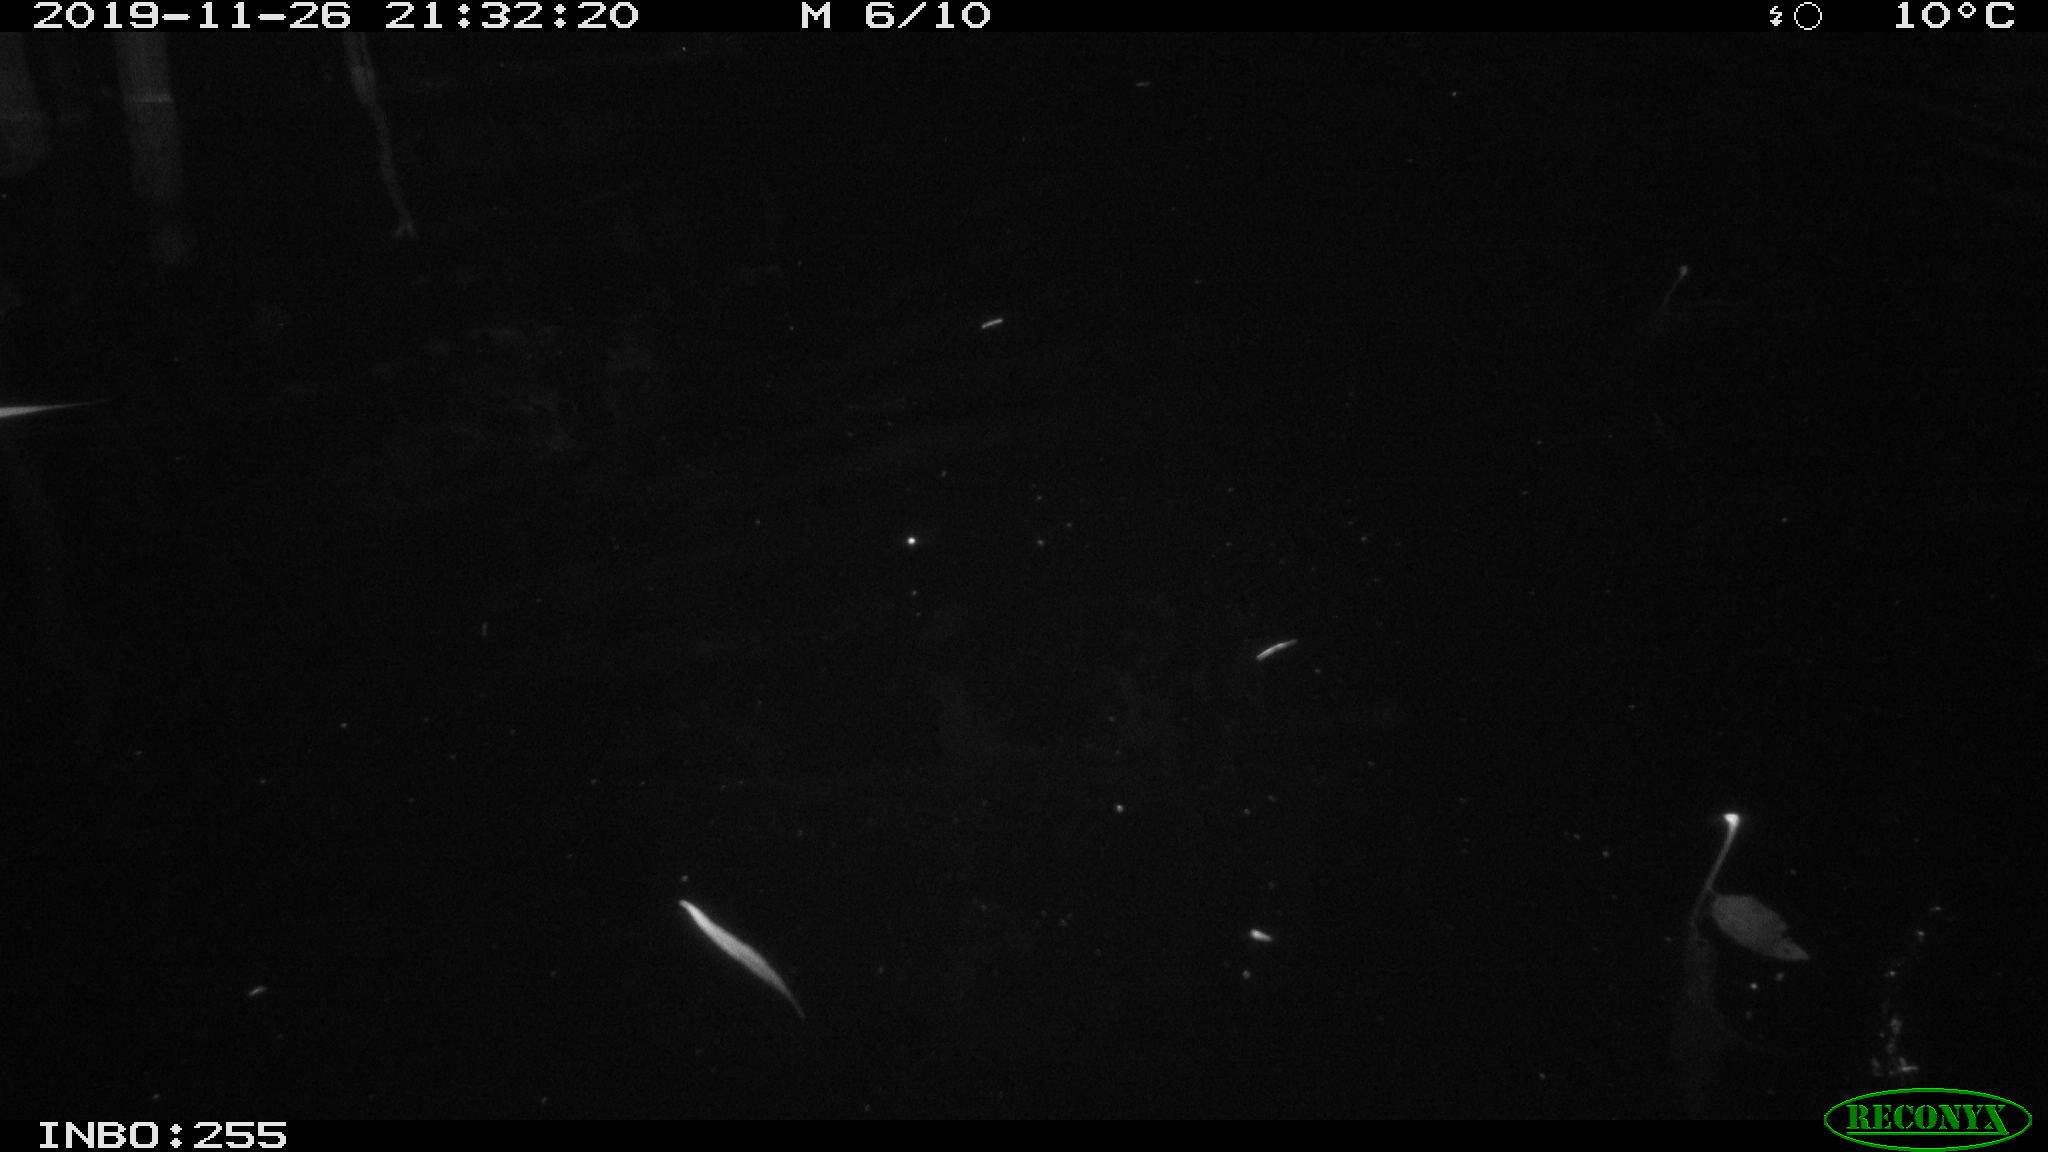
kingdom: Animalia
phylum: Chordata
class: Aves
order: Anseriformes
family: Anatidae
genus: Anas
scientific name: Anas platyrhynchos
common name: Mallard
